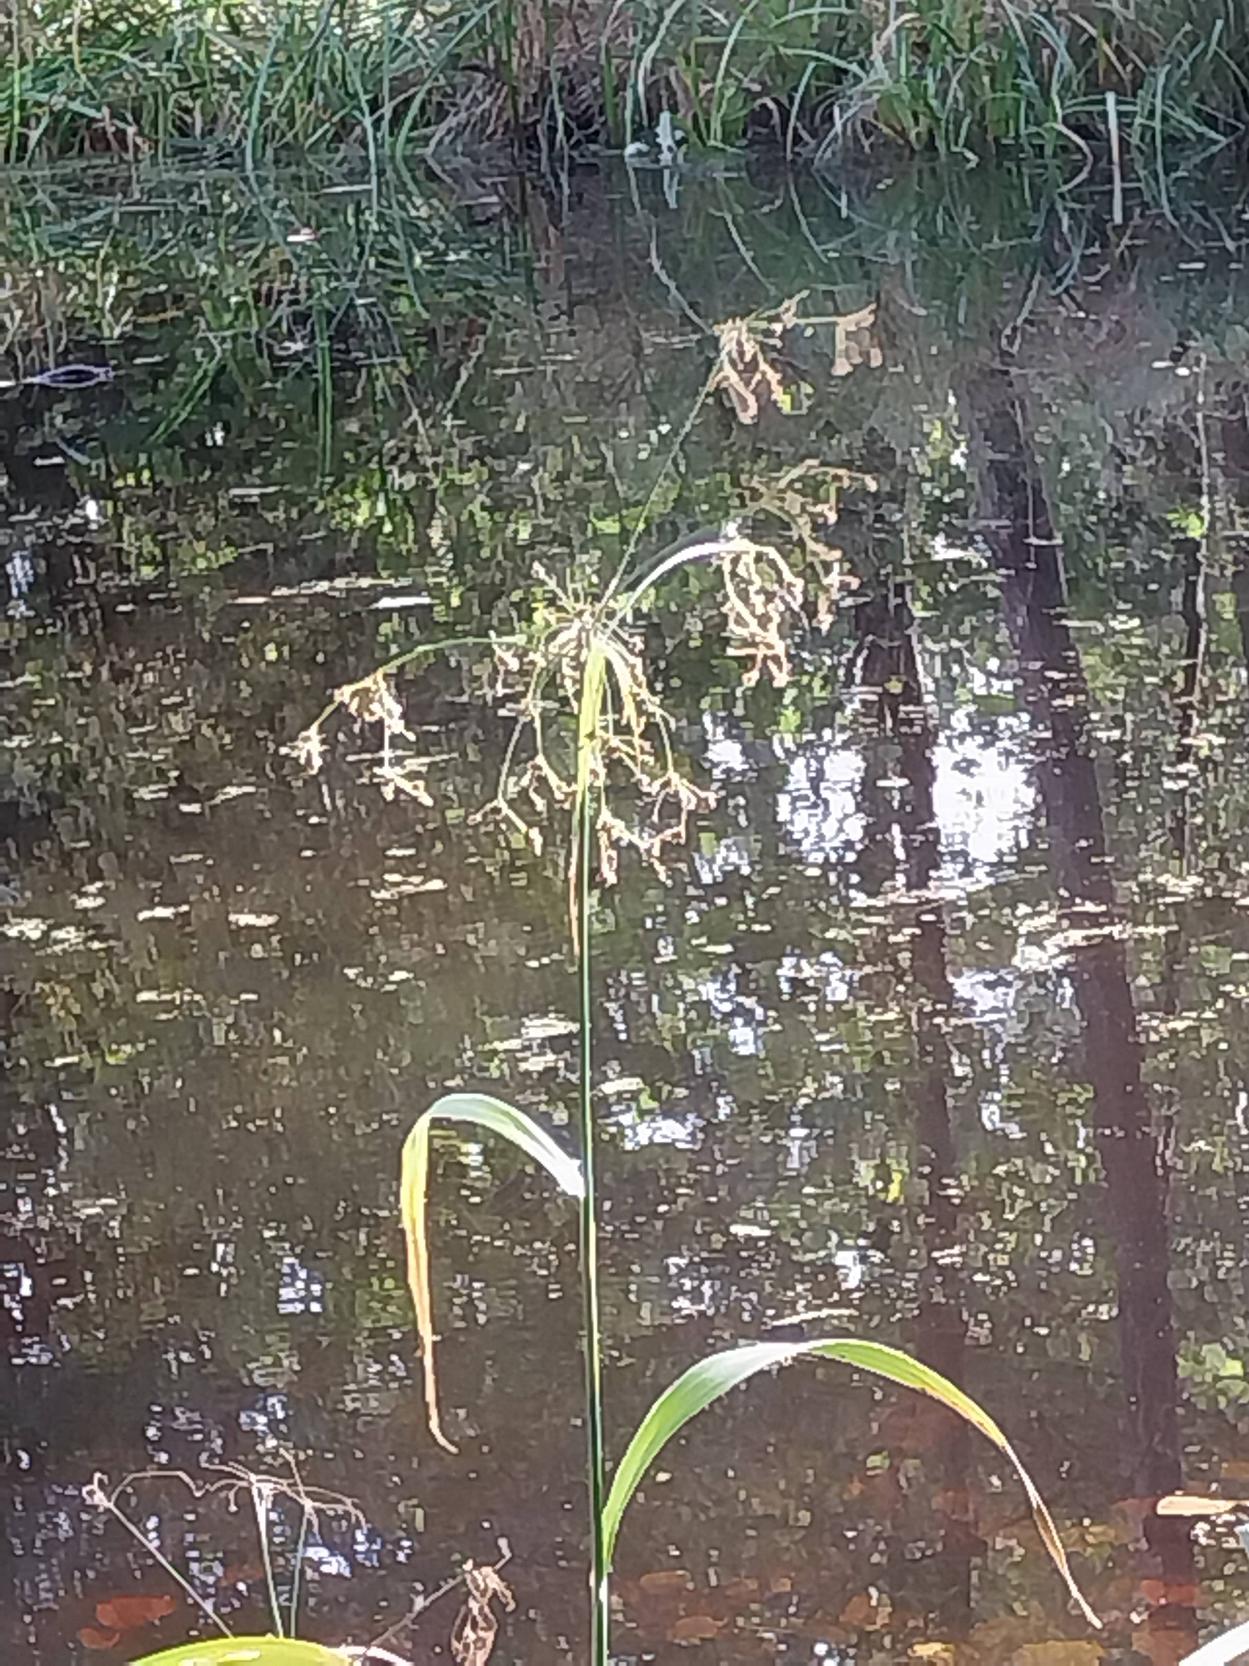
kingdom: Plantae
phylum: Tracheophyta
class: Liliopsida
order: Poales
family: Cyperaceae
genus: Scirpus
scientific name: Scirpus sylvaticus
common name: Skov-kogleaks
